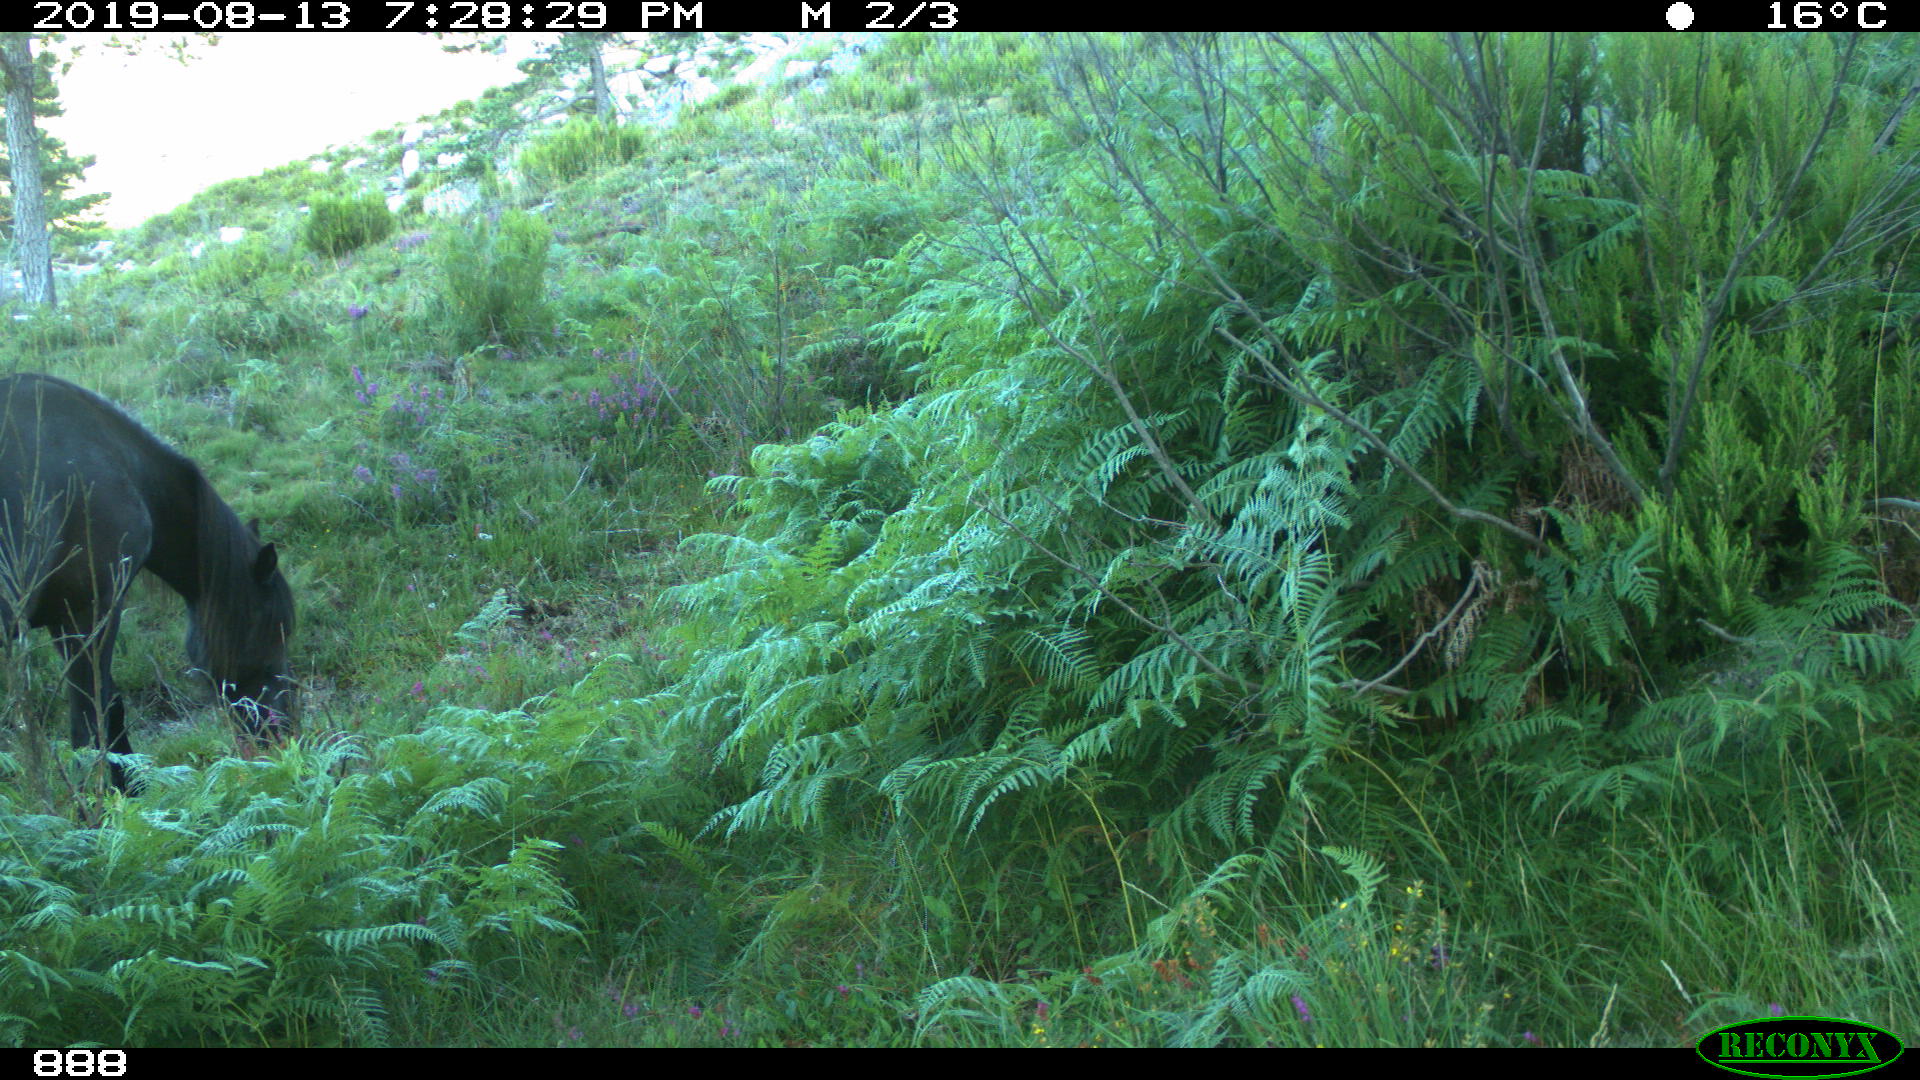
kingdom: Animalia
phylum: Chordata
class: Mammalia
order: Perissodactyla
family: Equidae
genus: Equus
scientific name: Equus caballus
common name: Horse
